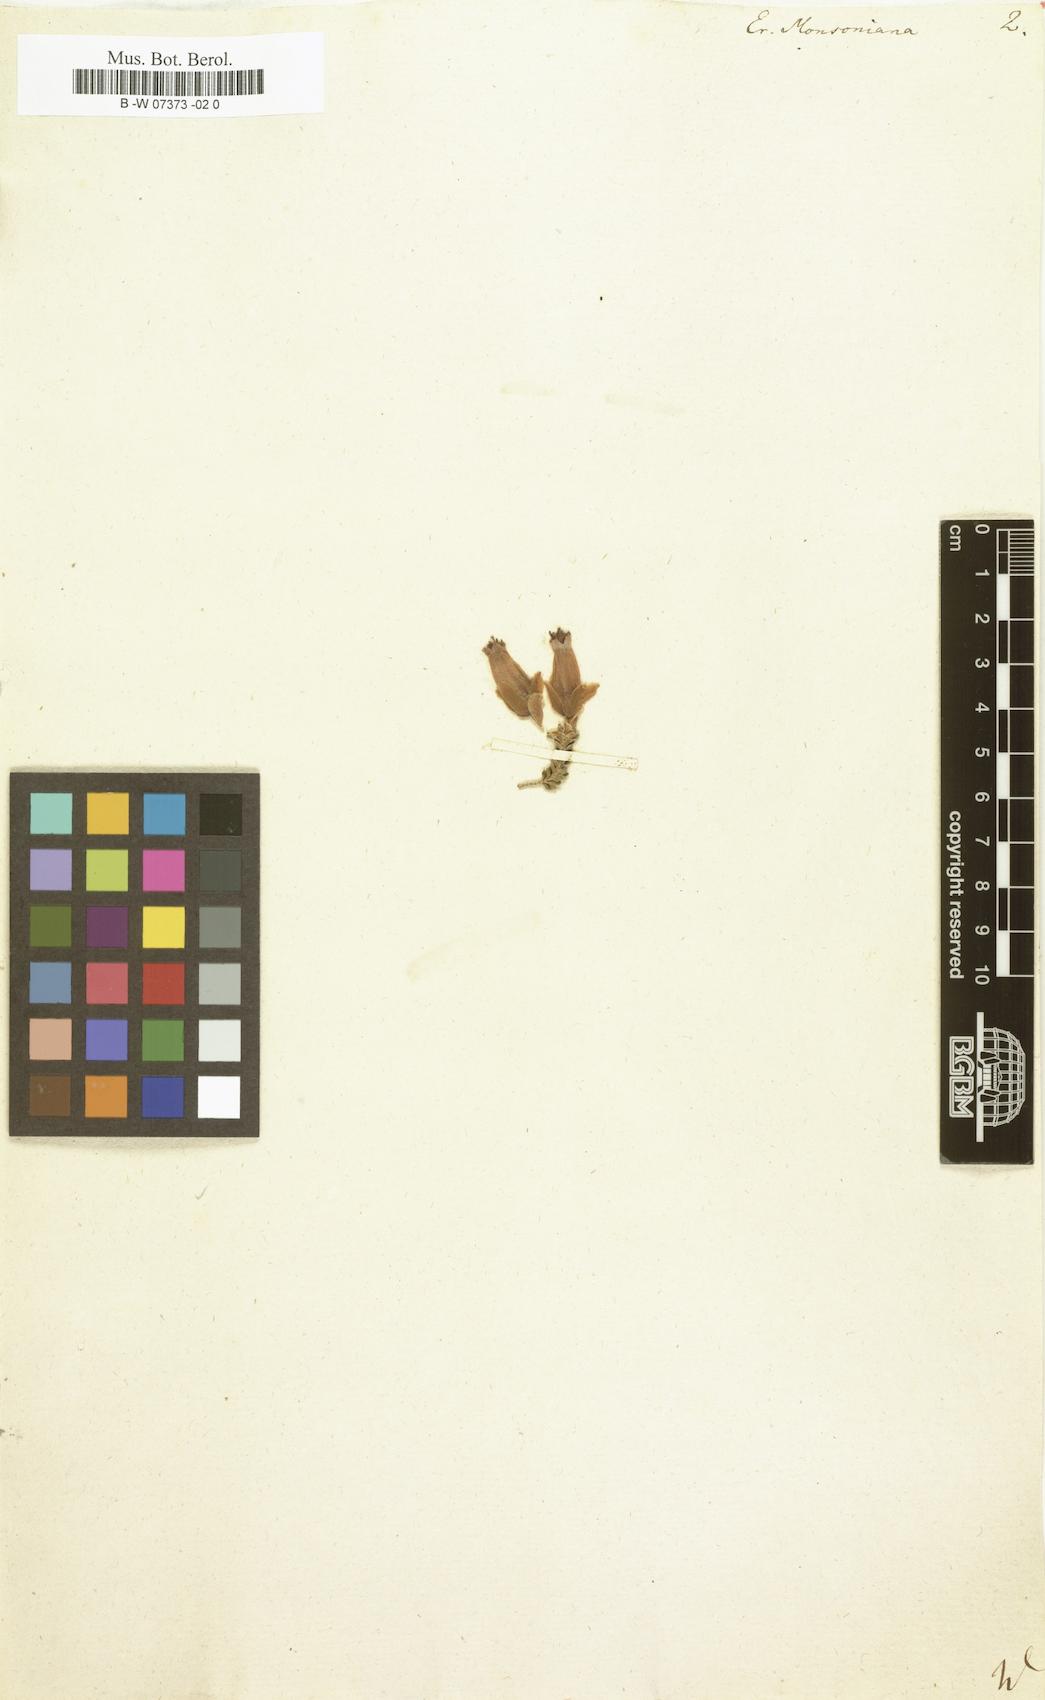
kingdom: Plantae
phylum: Tracheophyta
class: Magnoliopsida
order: Ericales
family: Ericaceae
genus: Erica
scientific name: Erica discolor
